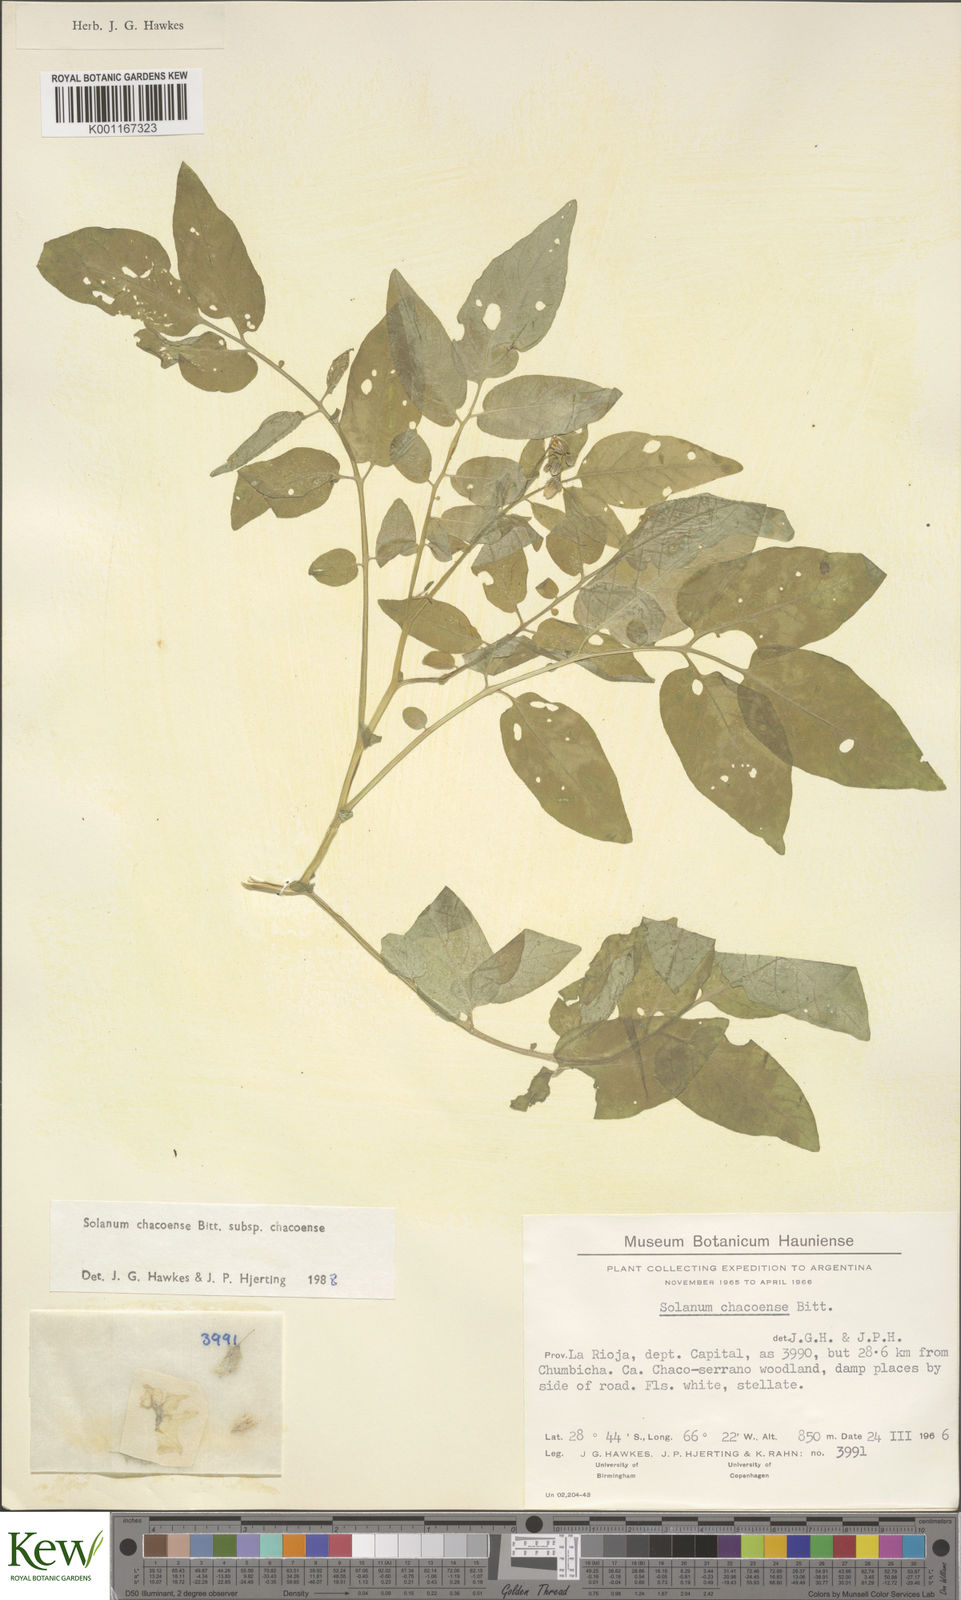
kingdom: Plantae
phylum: Tracheophyta
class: Magnoliopsida
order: Solanales
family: Solanaceae
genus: Solanum
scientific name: Solanum chacoense
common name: Chaco potato
